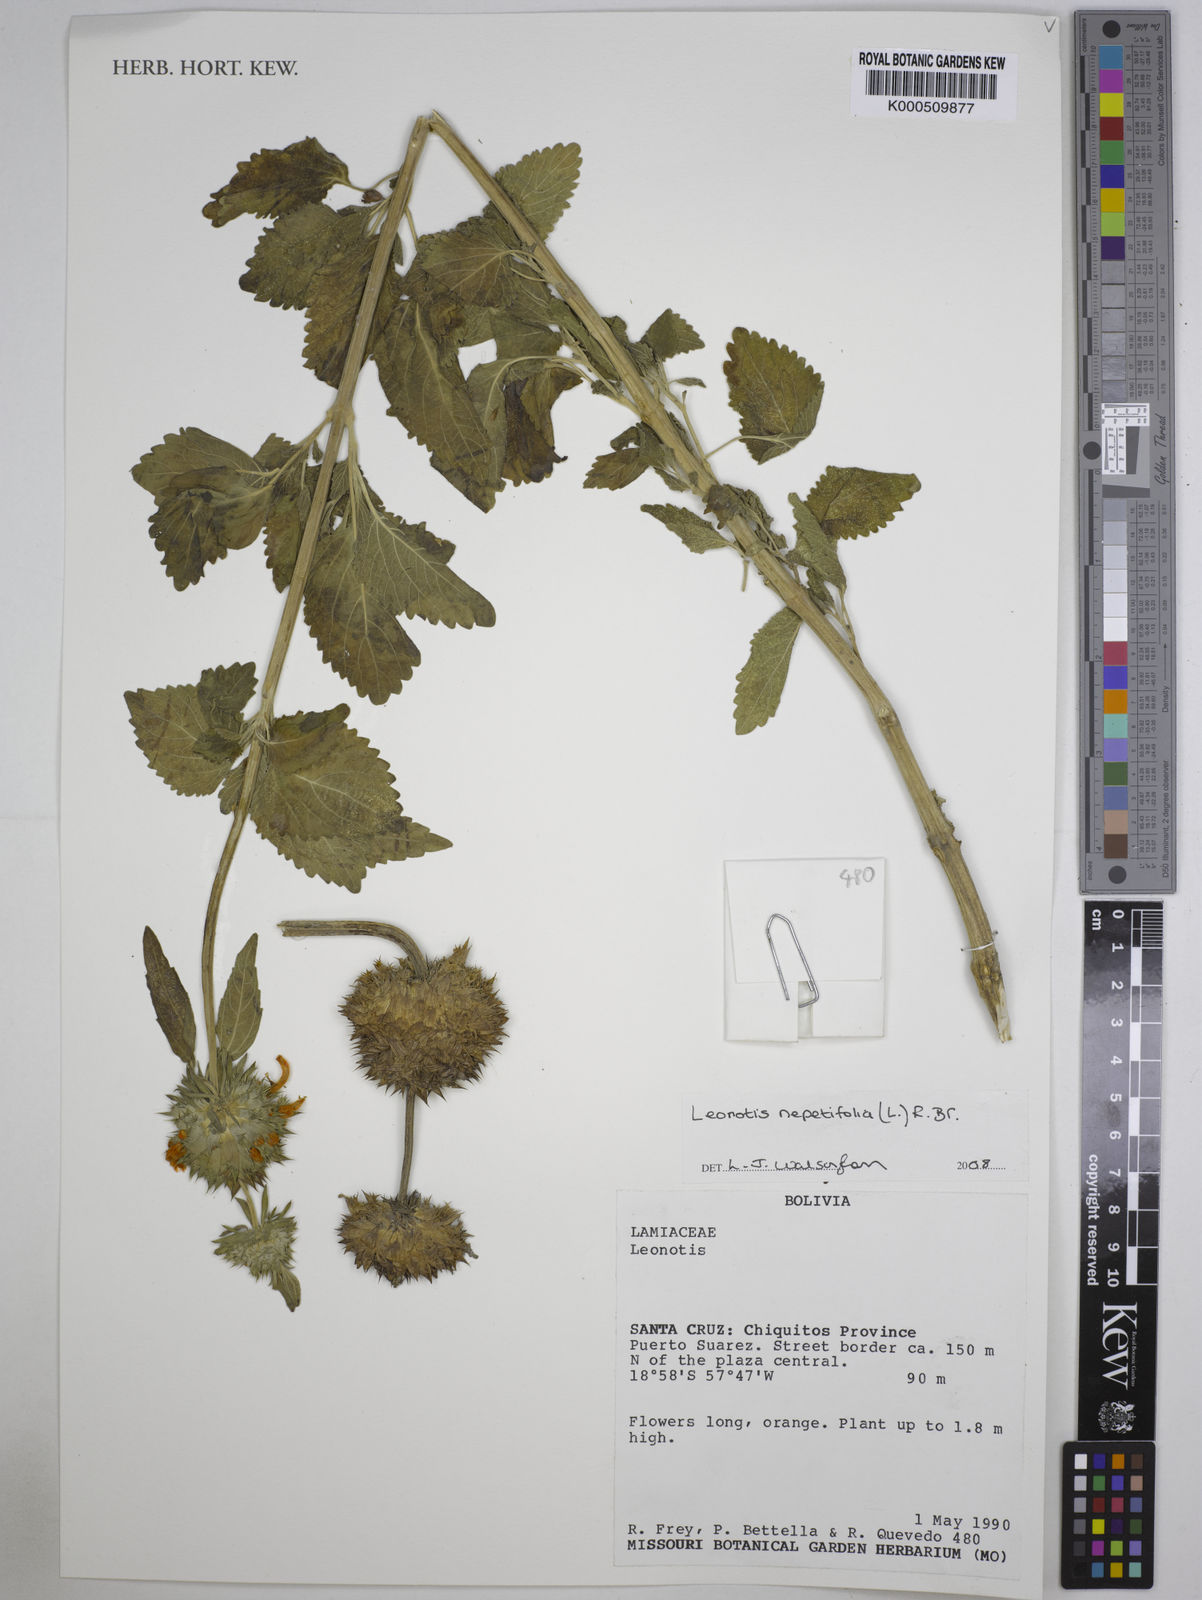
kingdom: Plantae
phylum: Tracheophyta
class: Magnoliopsida
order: Lamiales
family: Lamiaceae
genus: Leonotis
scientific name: Leonotis nepetifolia
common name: Christmas candlestick
